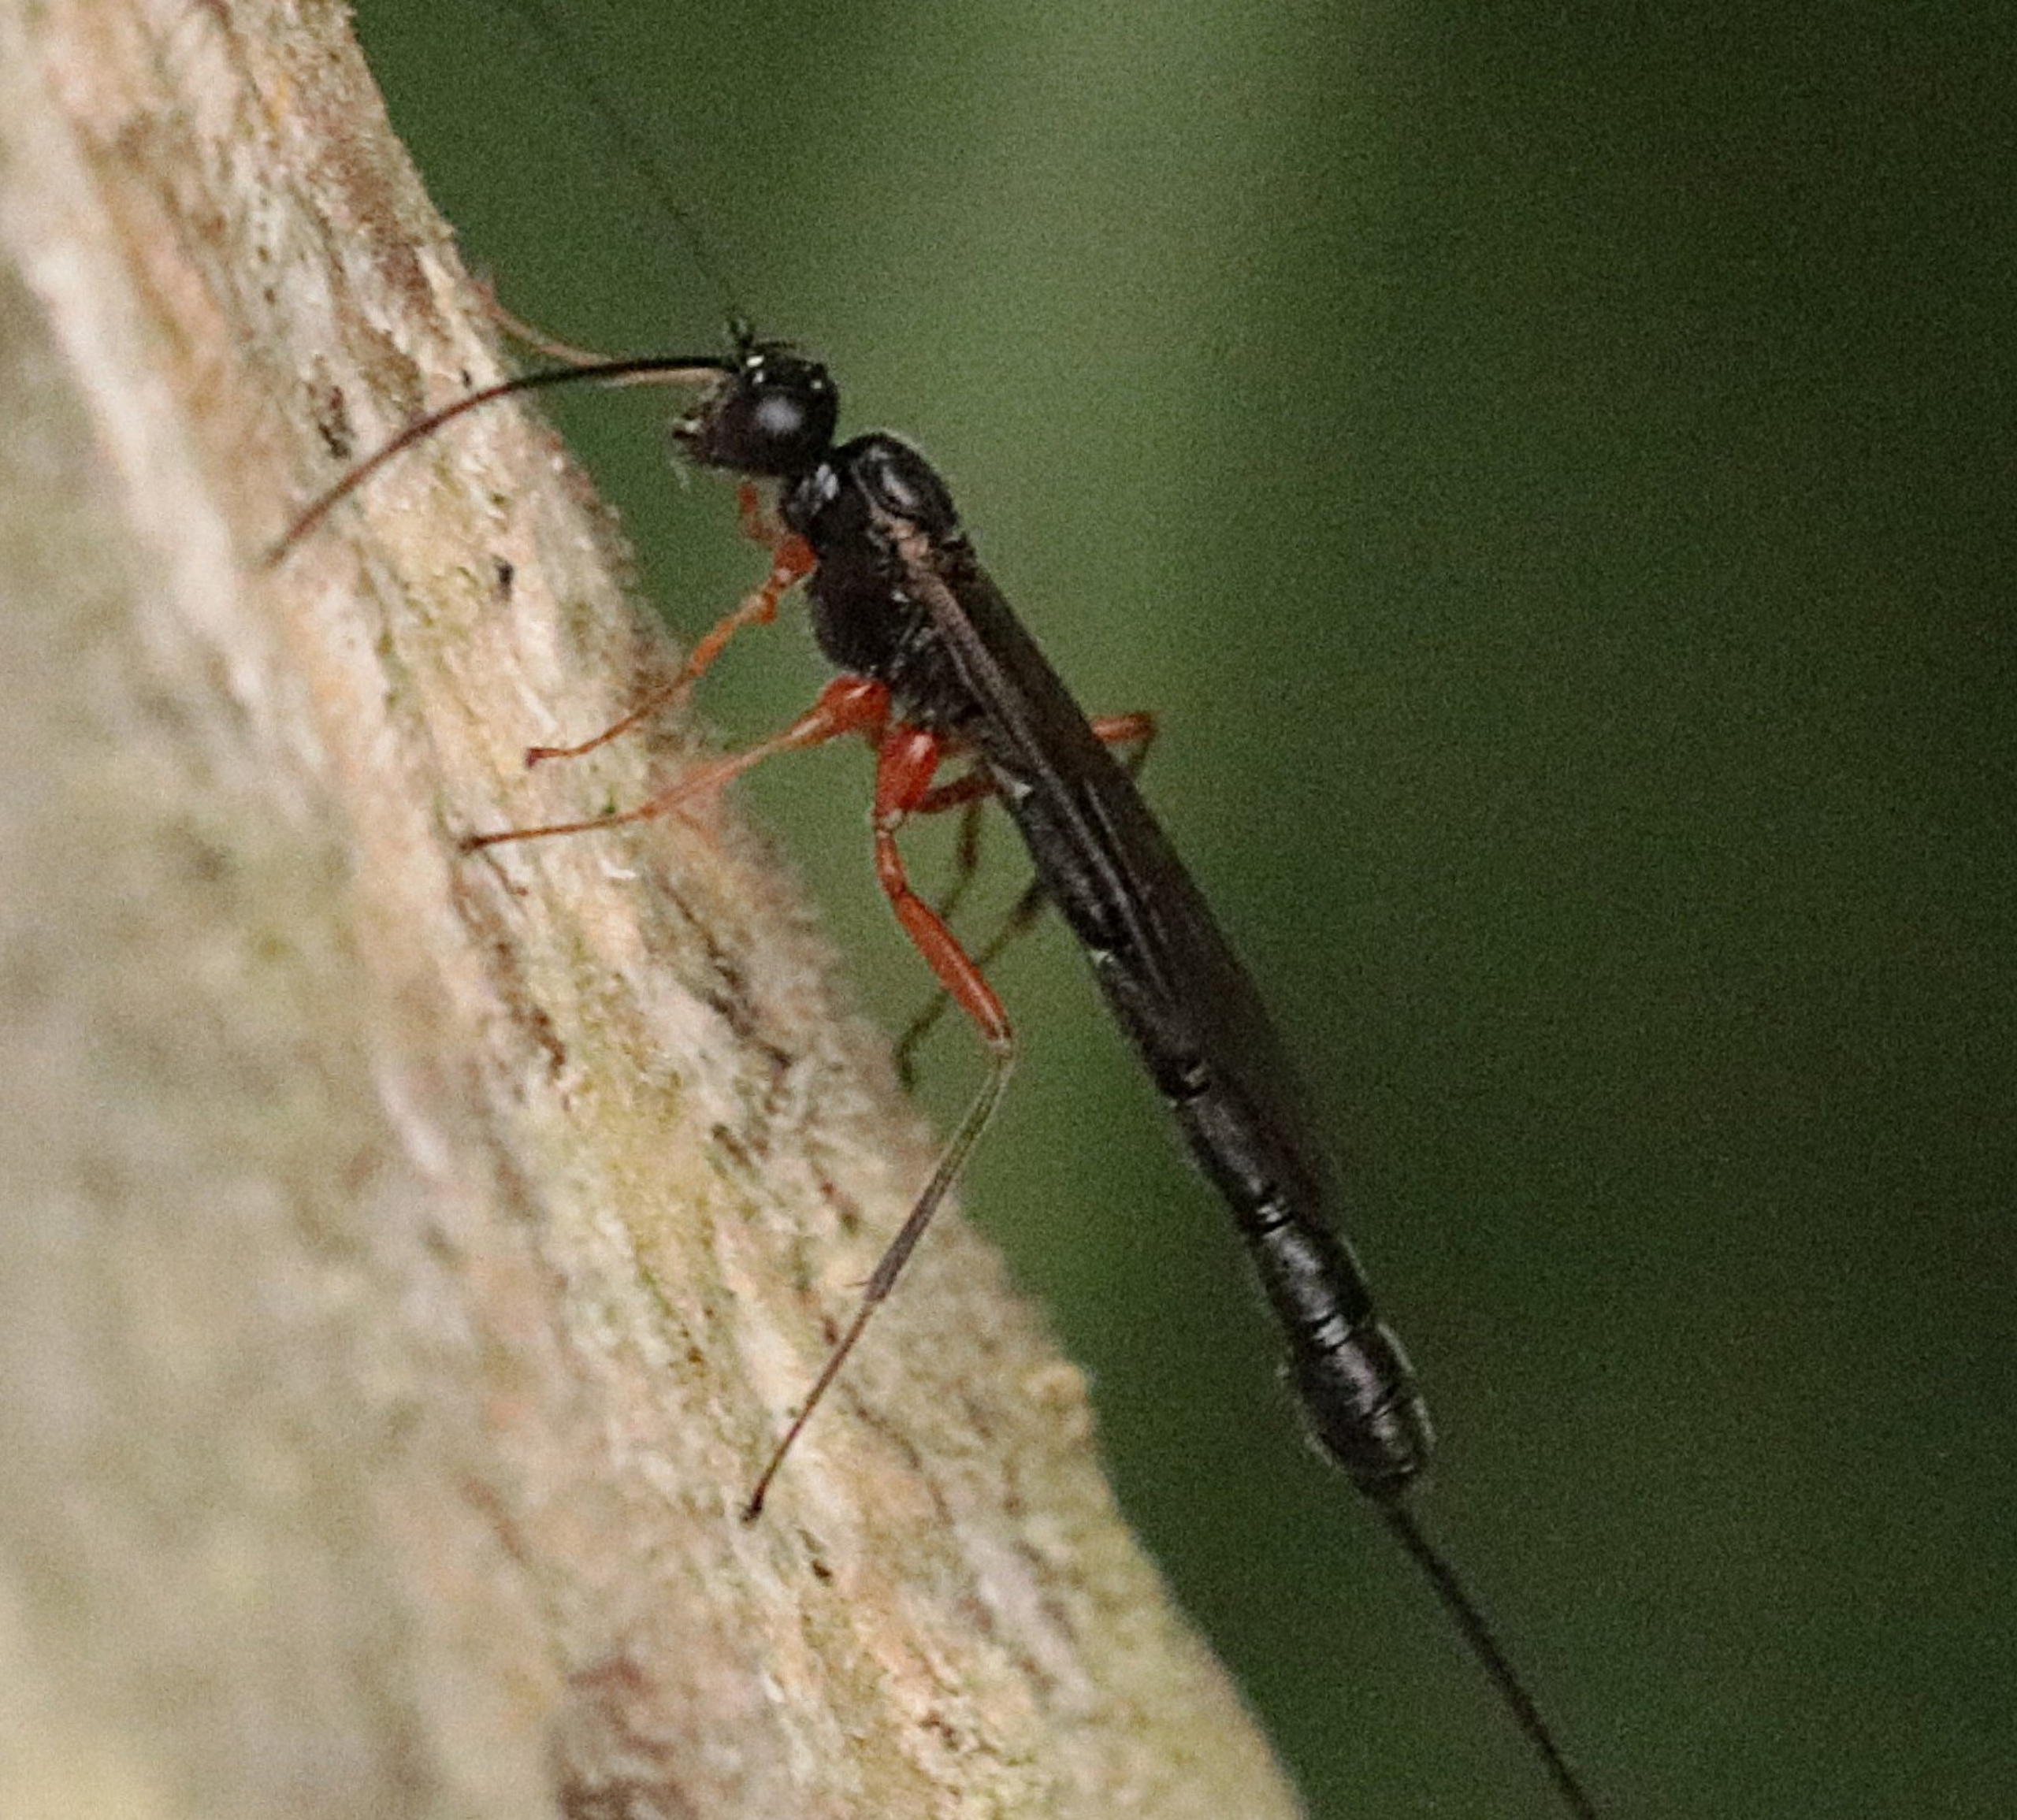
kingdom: Animalia
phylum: Arthropoda
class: Insecta
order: Hymenoptera
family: Ichneumonidae
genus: Ephialtes
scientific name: Ephialtes
